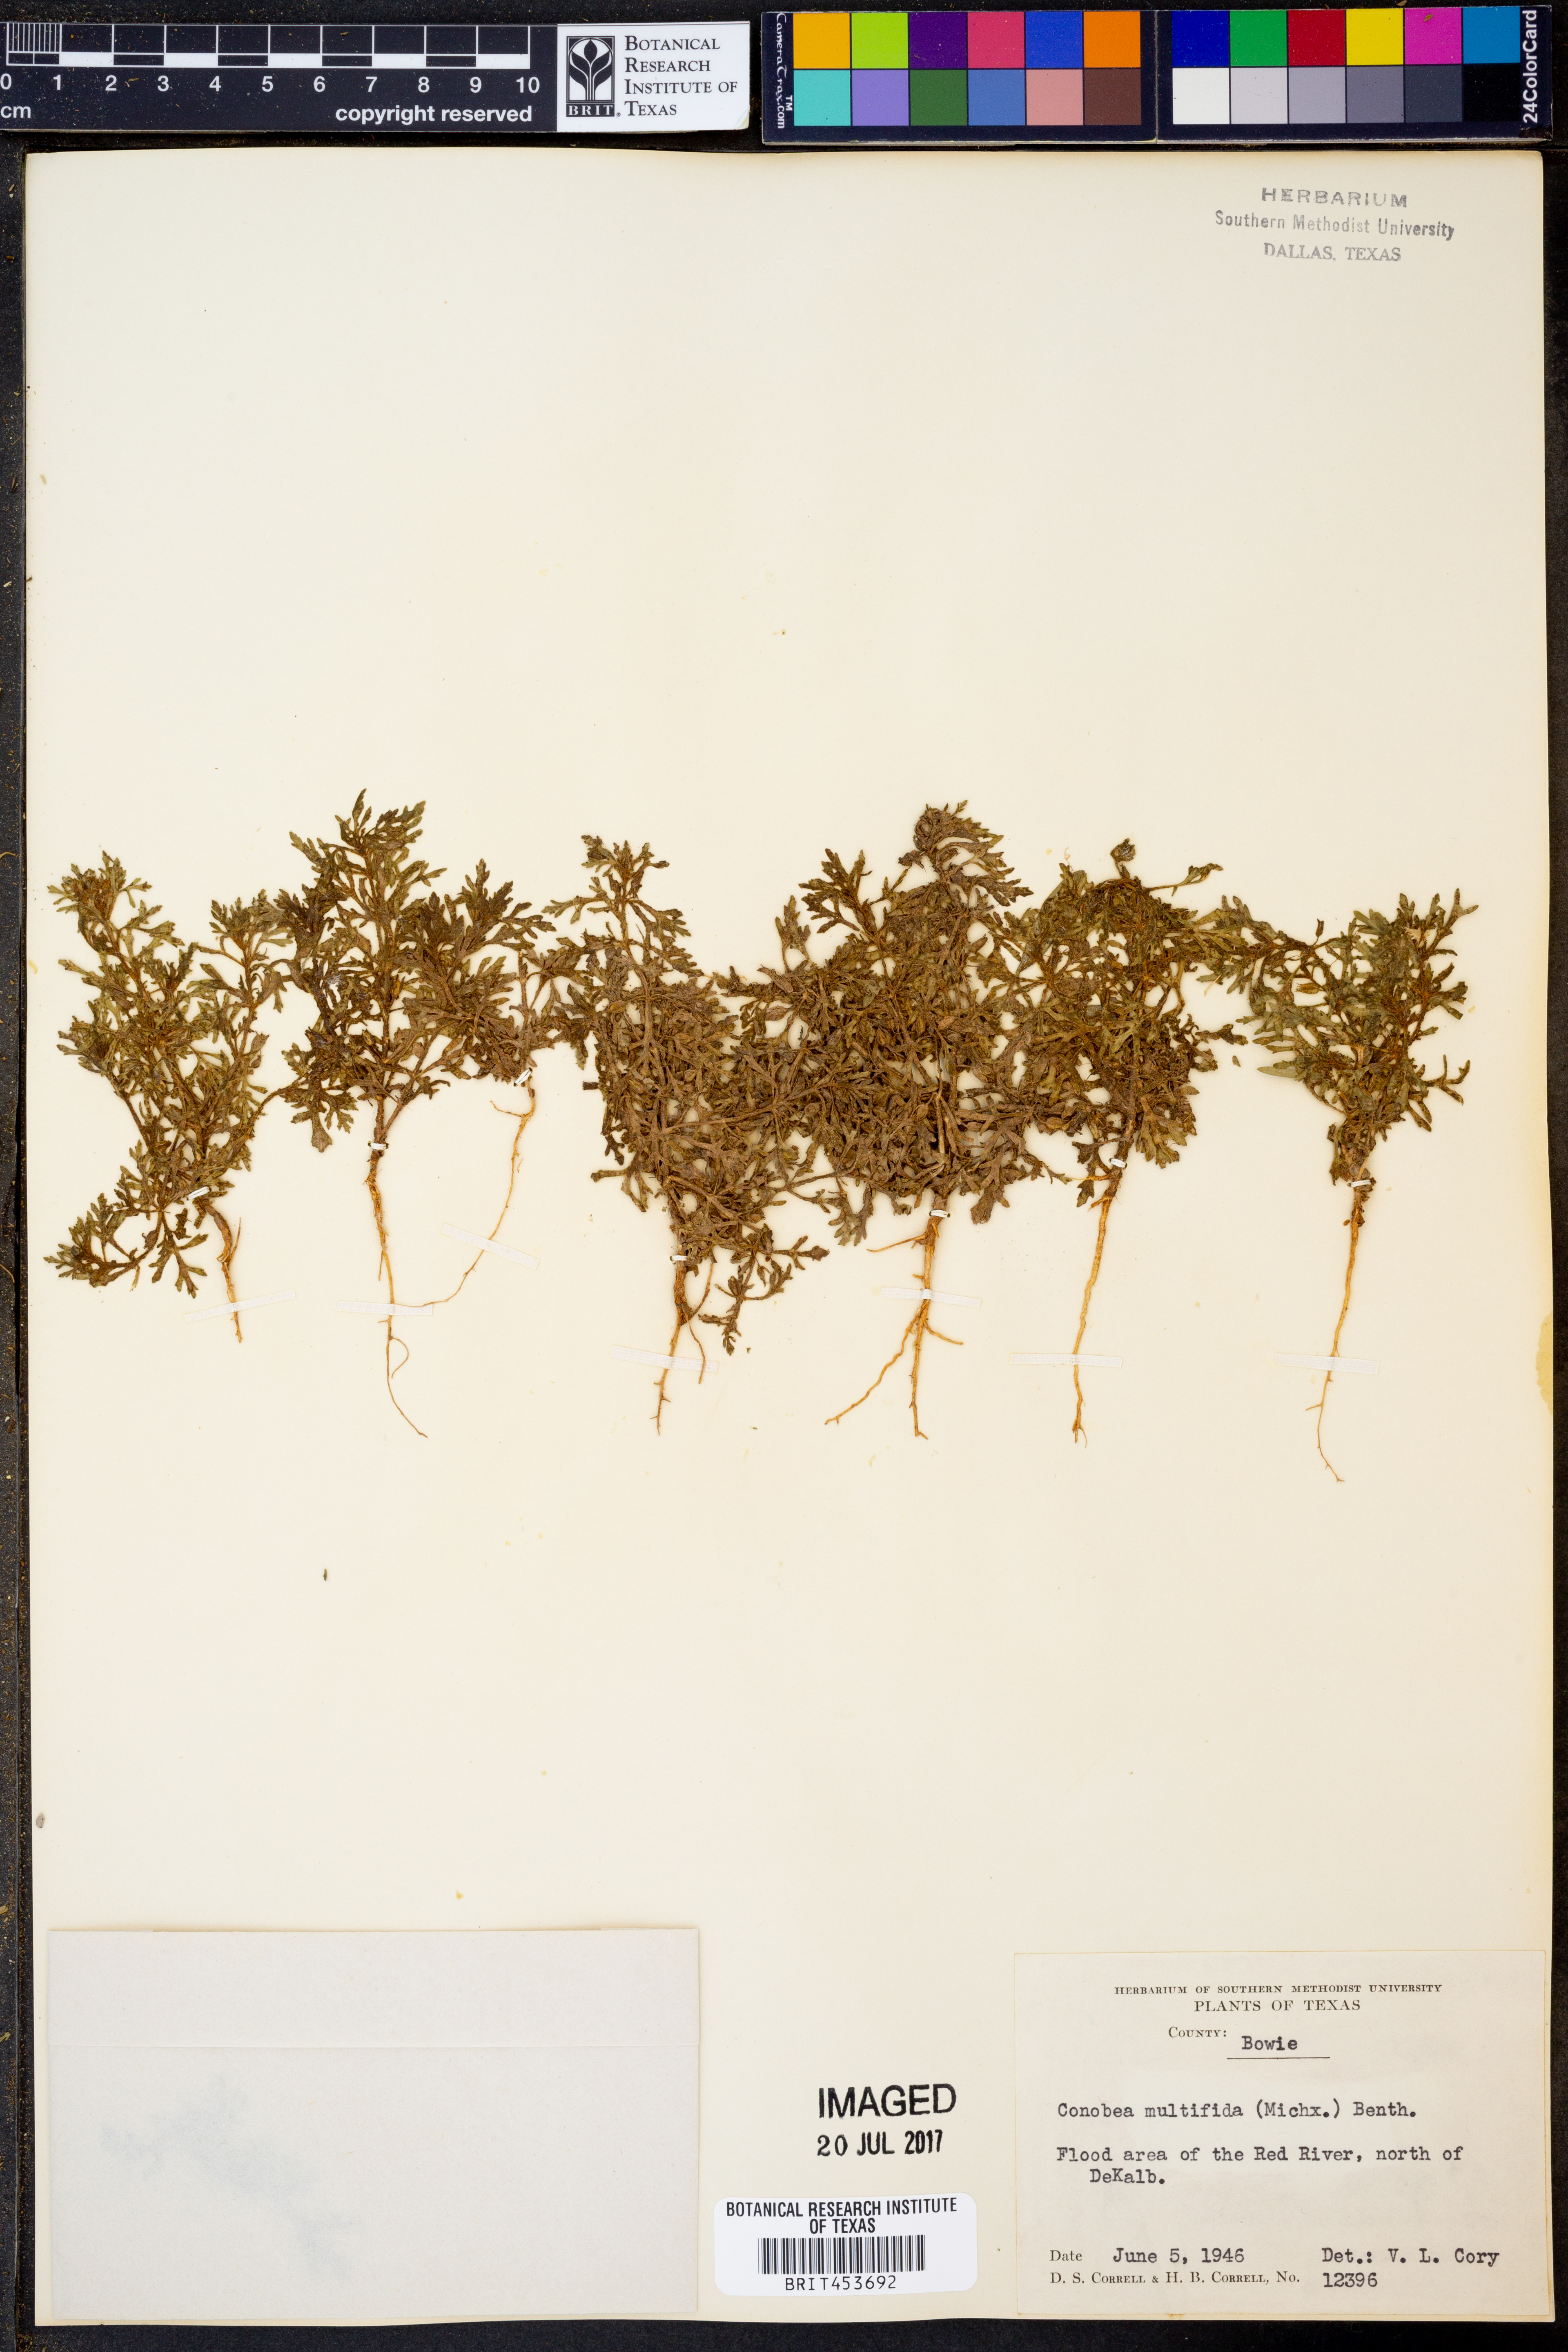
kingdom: Plantae
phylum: Tracheophyta
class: Magnoliopsida
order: Lamiales
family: Plantaginaceae
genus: Leucospora
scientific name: Leucospora multifida
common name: Narrow-leaf paleseed
